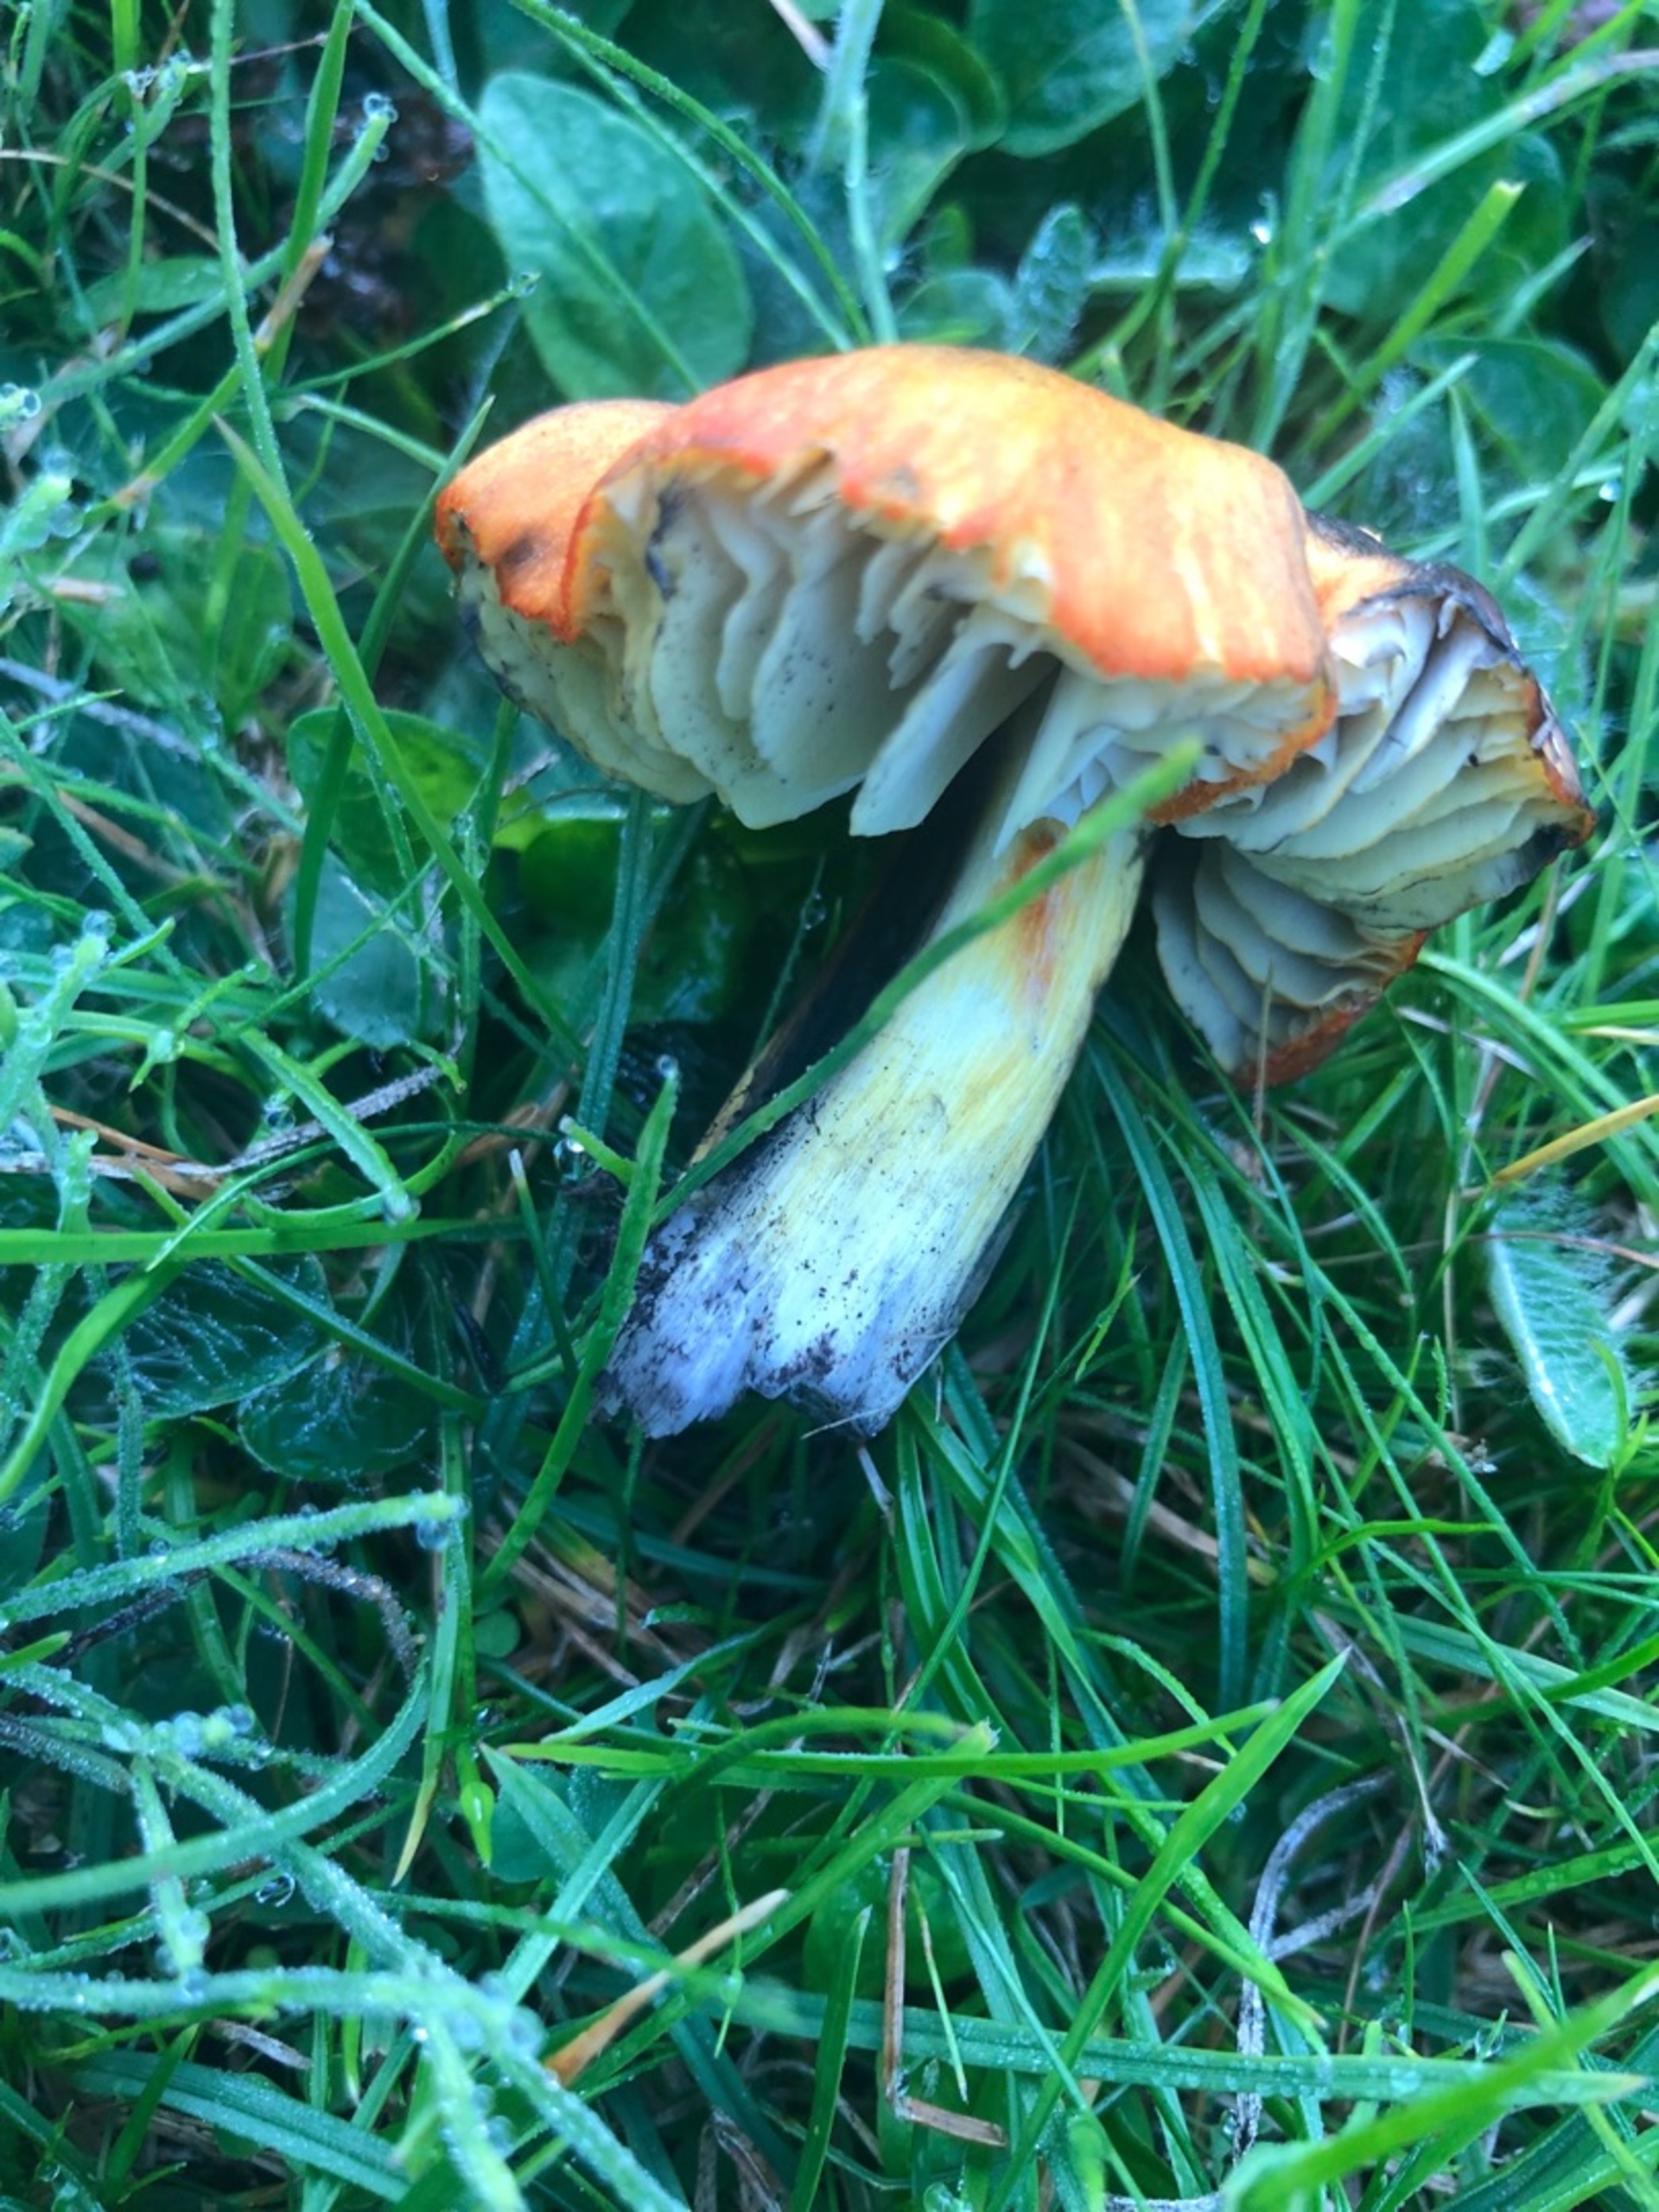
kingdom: Fungi
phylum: Basidiomycota
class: Agaricomycetes
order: Agaricales
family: Hygrophoraceae
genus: Hygrocybe
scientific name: Hygrocybe conica
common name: Kegle-vokshat (varietet
